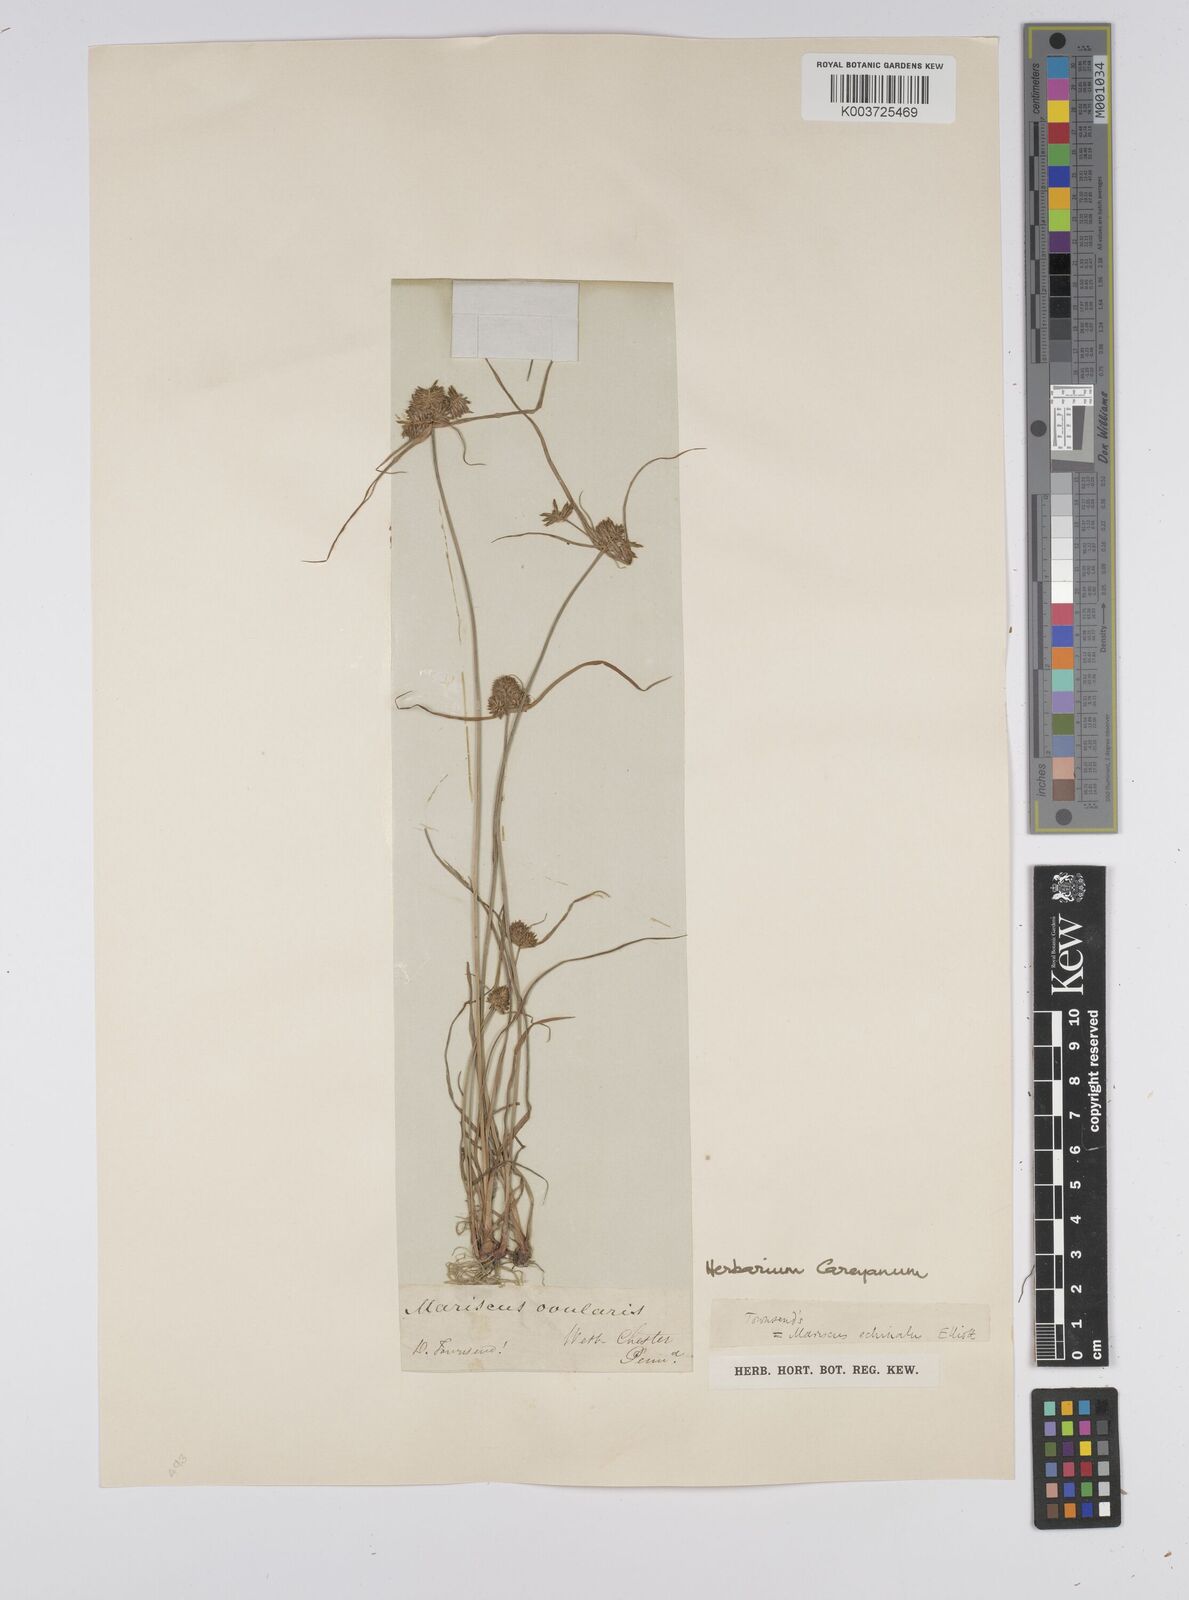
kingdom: Plantae
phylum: Tracheophyta
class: Liliopsida
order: Poales
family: Cyperaceae
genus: Cyperus
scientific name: Cyperus luzulae
